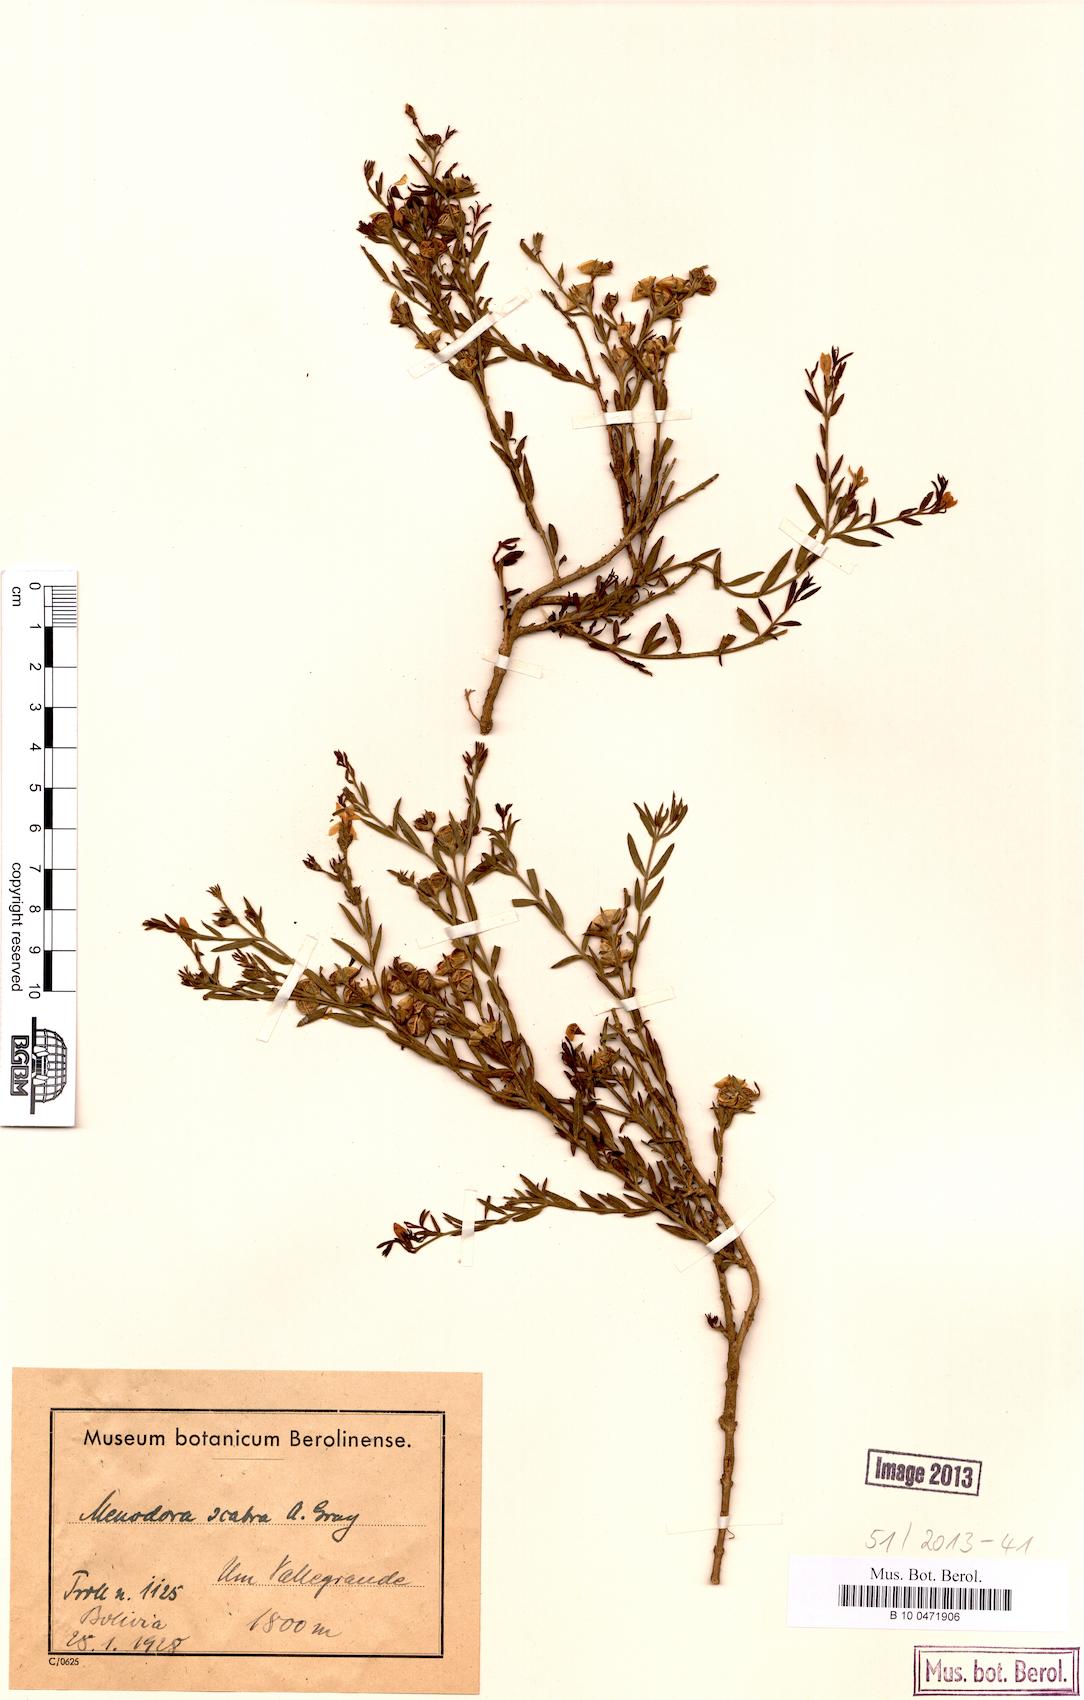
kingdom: Plantae
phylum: Tracheophyta
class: Magnoliopsida
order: Lamiales
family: Oleaceae
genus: Menodora
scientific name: Menodora scabra
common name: Rough menodora
